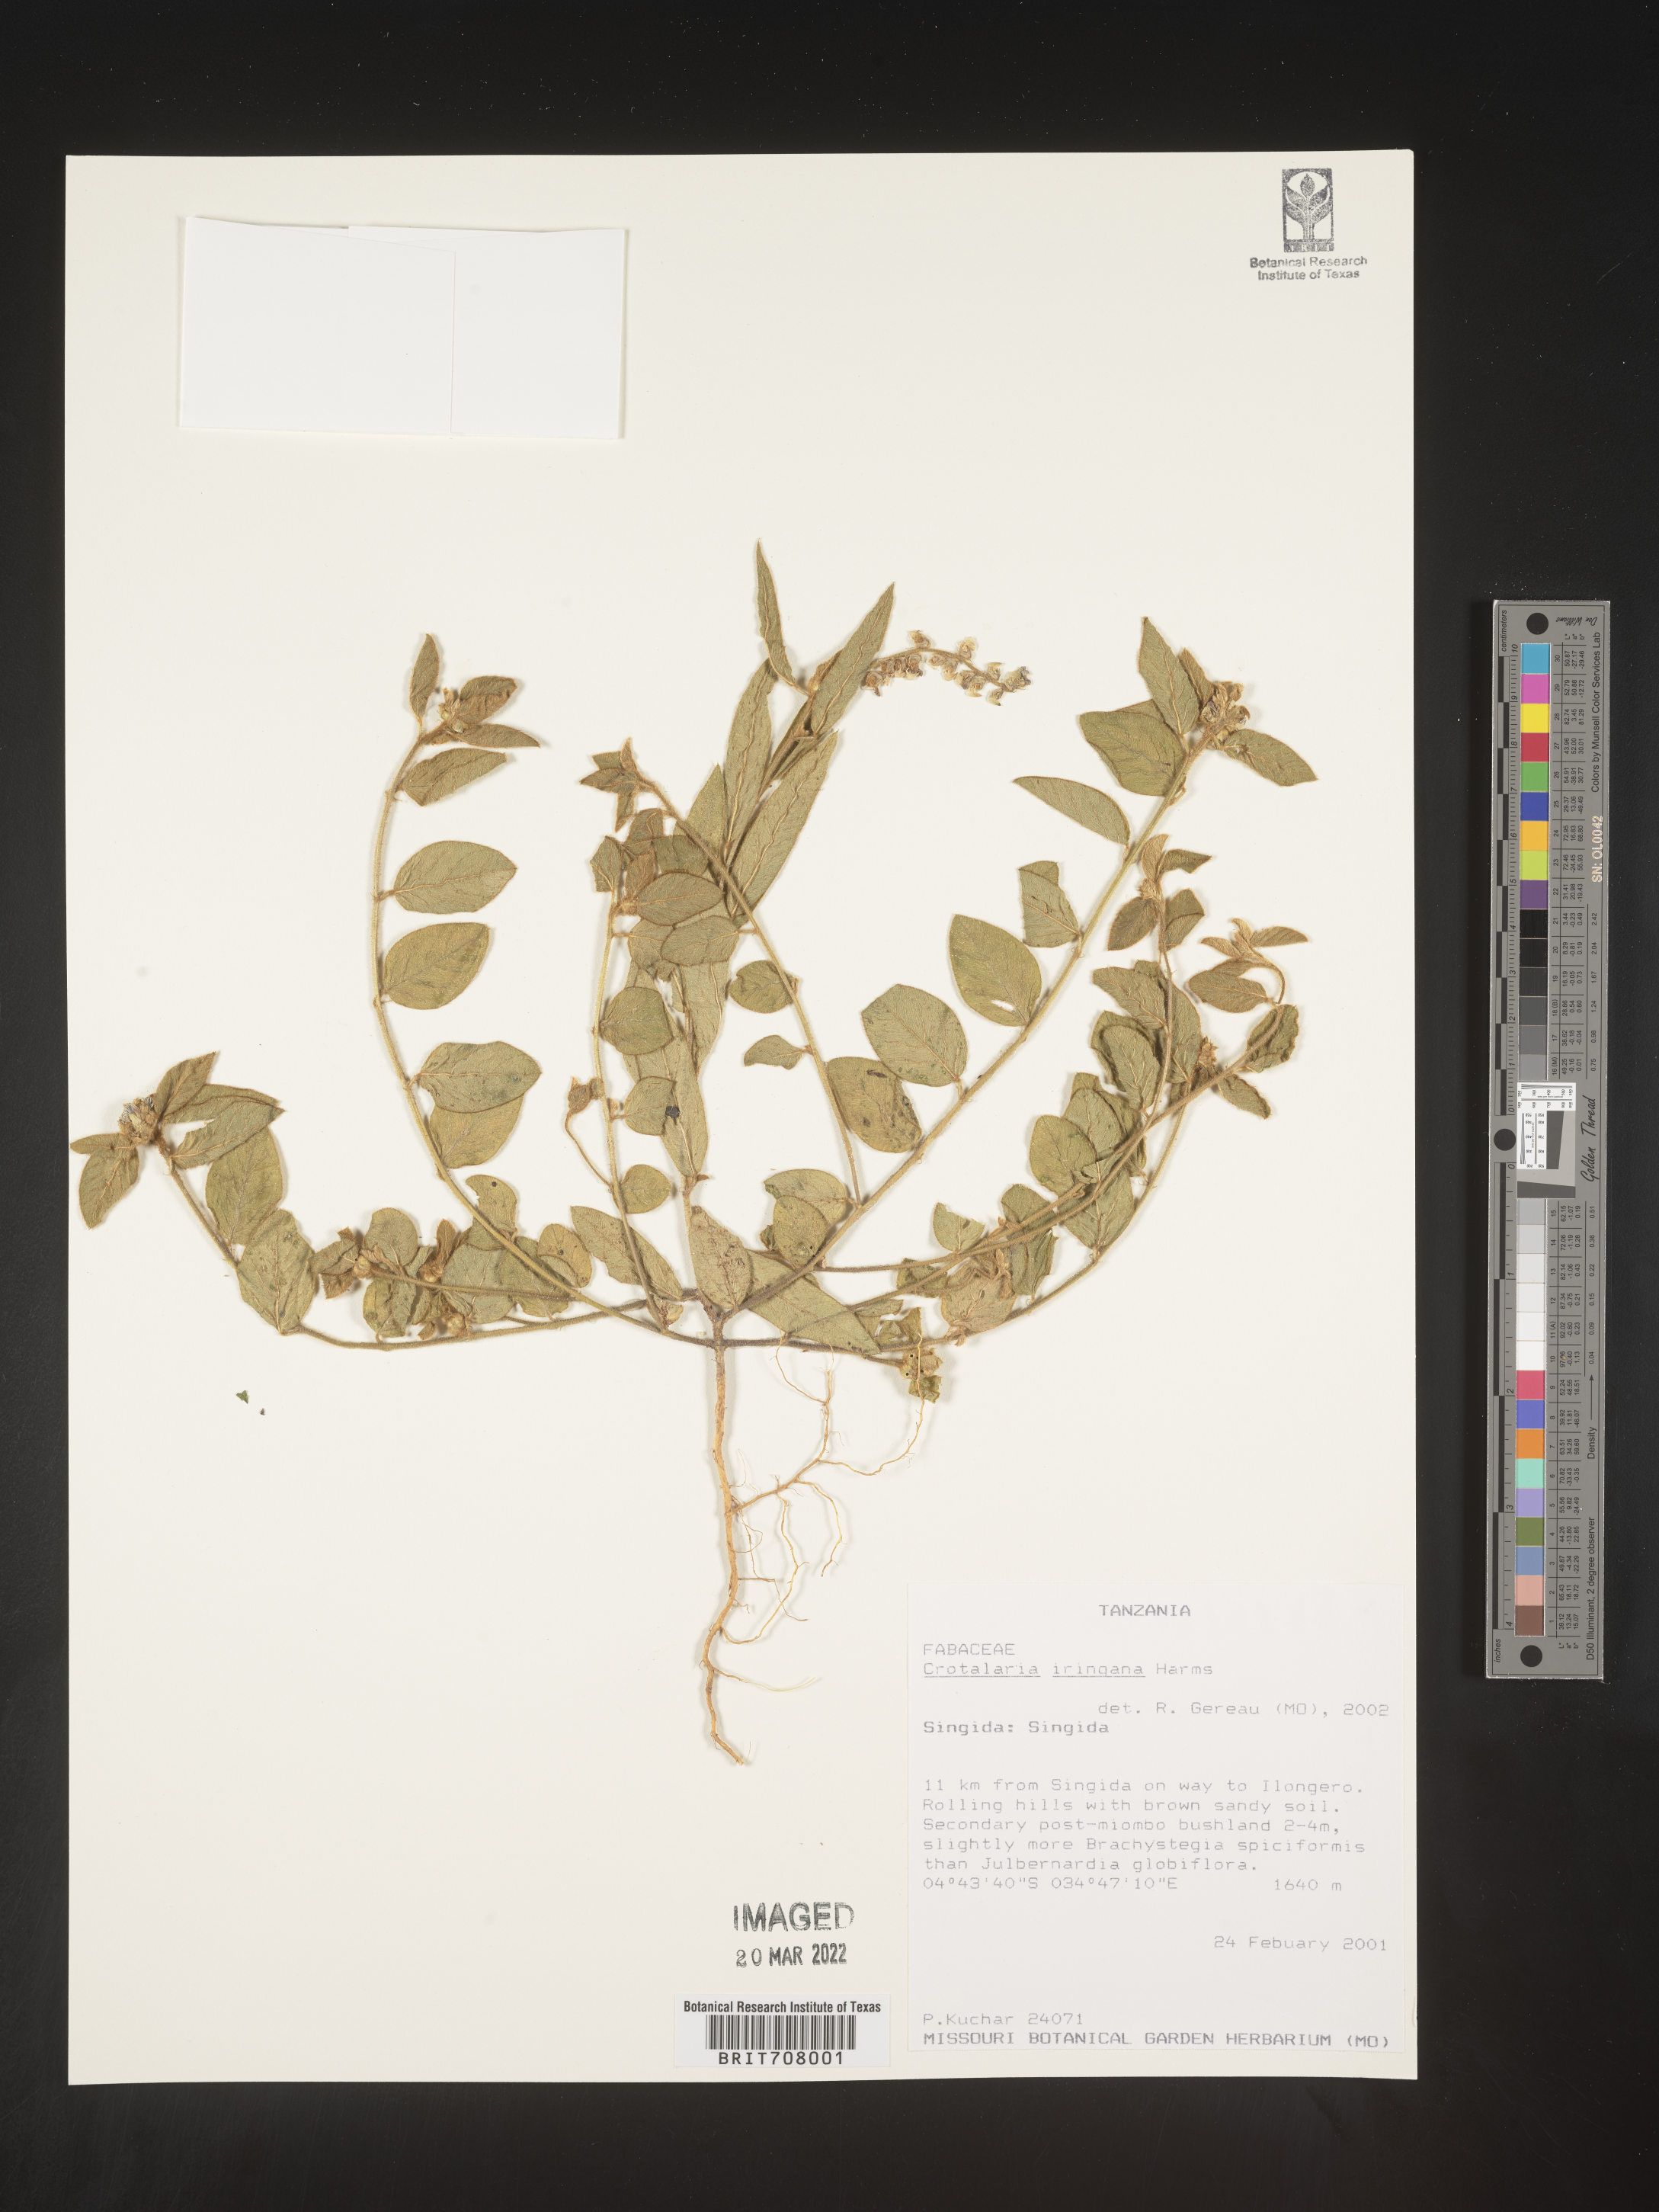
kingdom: Plantae
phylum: Tracheophyta
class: Magnoliopsida
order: Fabales
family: Fabaceae
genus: Crotalaria
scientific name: Crotalaria
